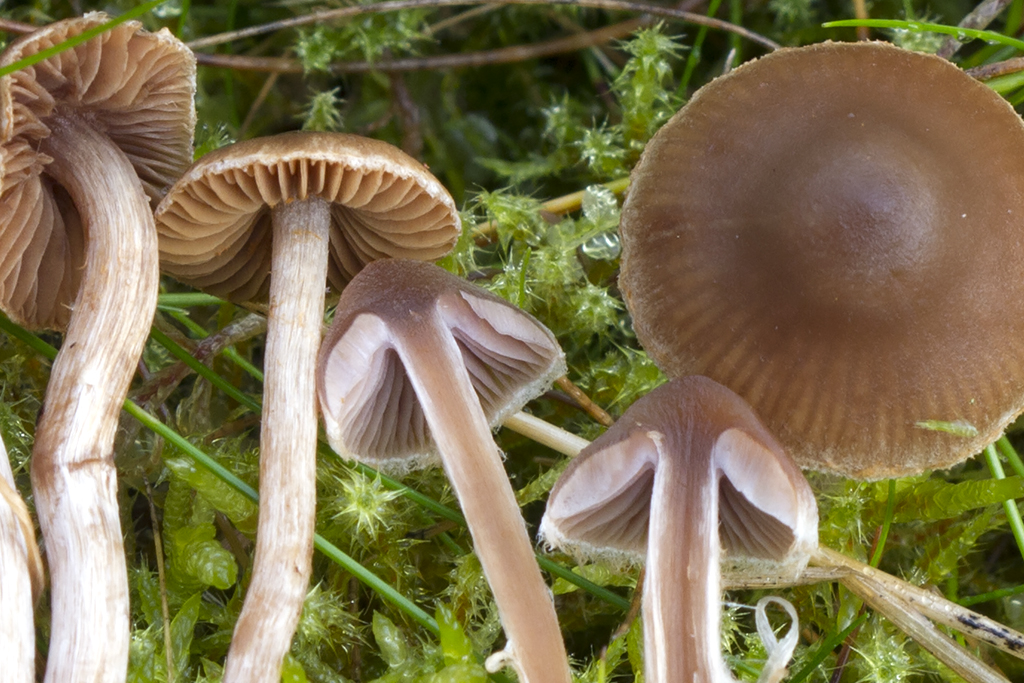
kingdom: Fungi
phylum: Basidiomycota
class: Agaricomycetes
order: Agaricales
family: Cortinariaceae
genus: Cortinarius
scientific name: Cortinarius pilatii
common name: Piláts slørhat
